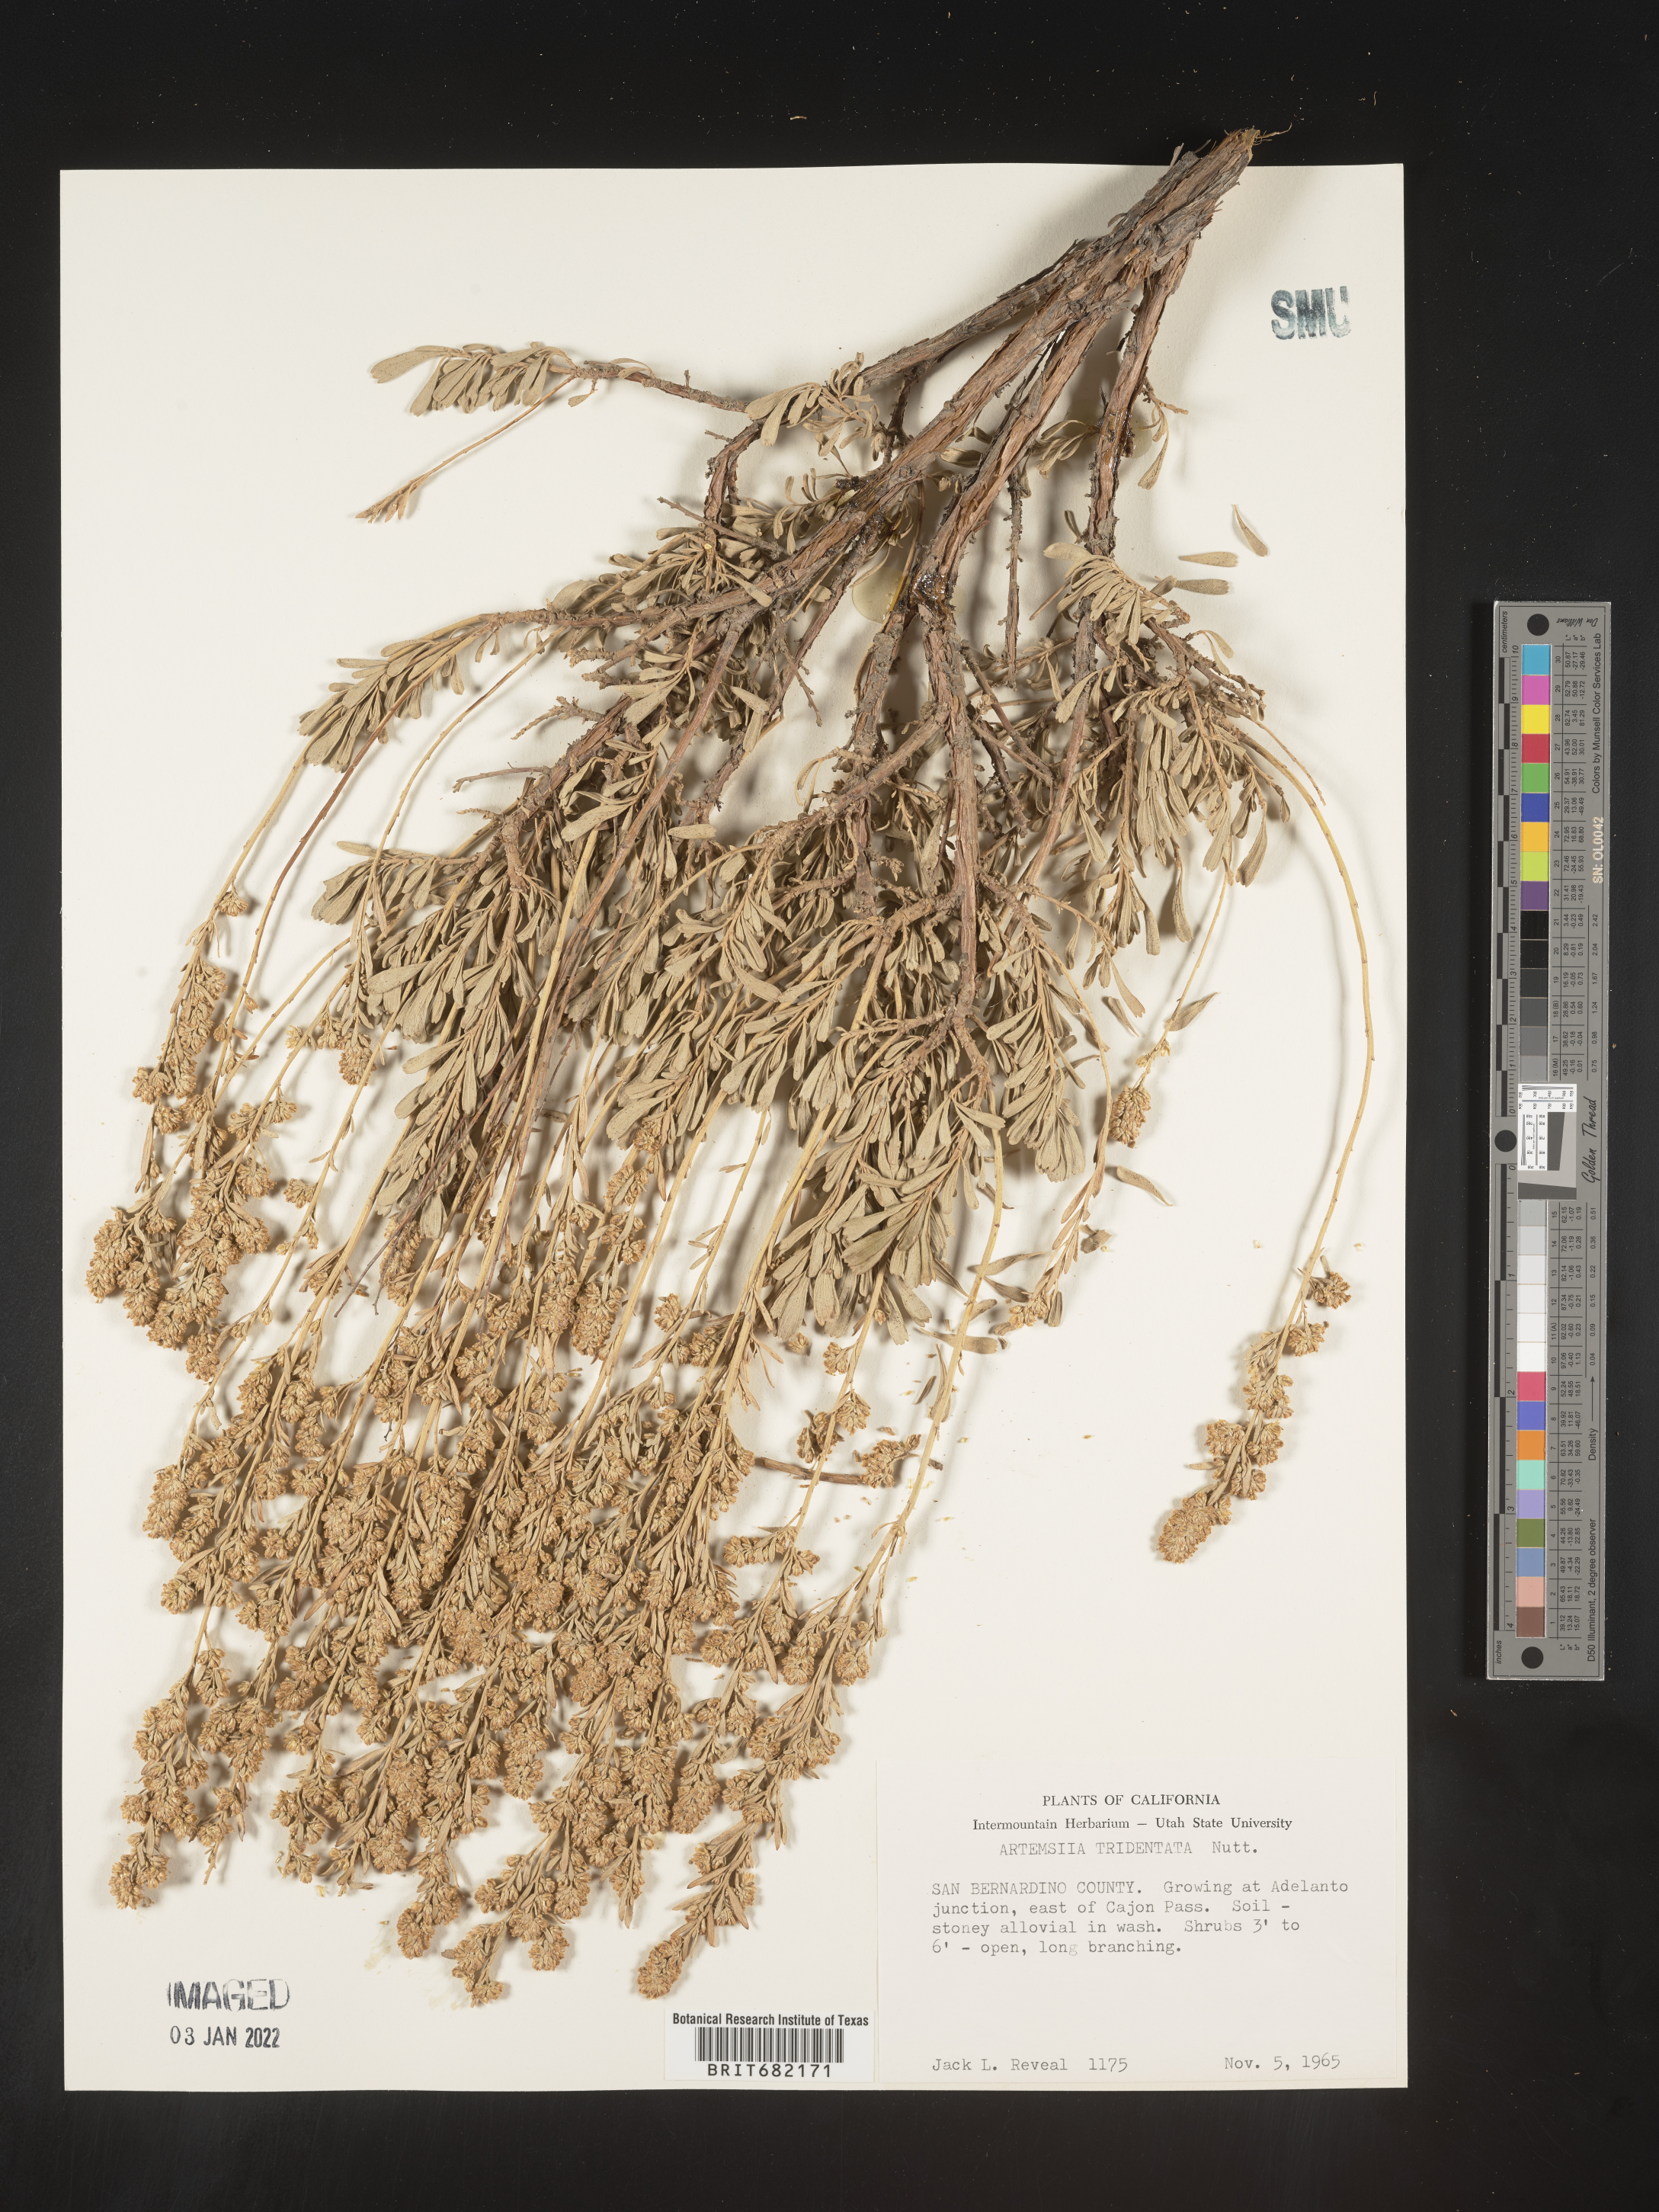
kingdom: Plantae
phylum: Tracheophyta
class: Magnoliopsida
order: Asterales
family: Asteraceae
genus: Artemisia
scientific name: Artemisia tridentata
